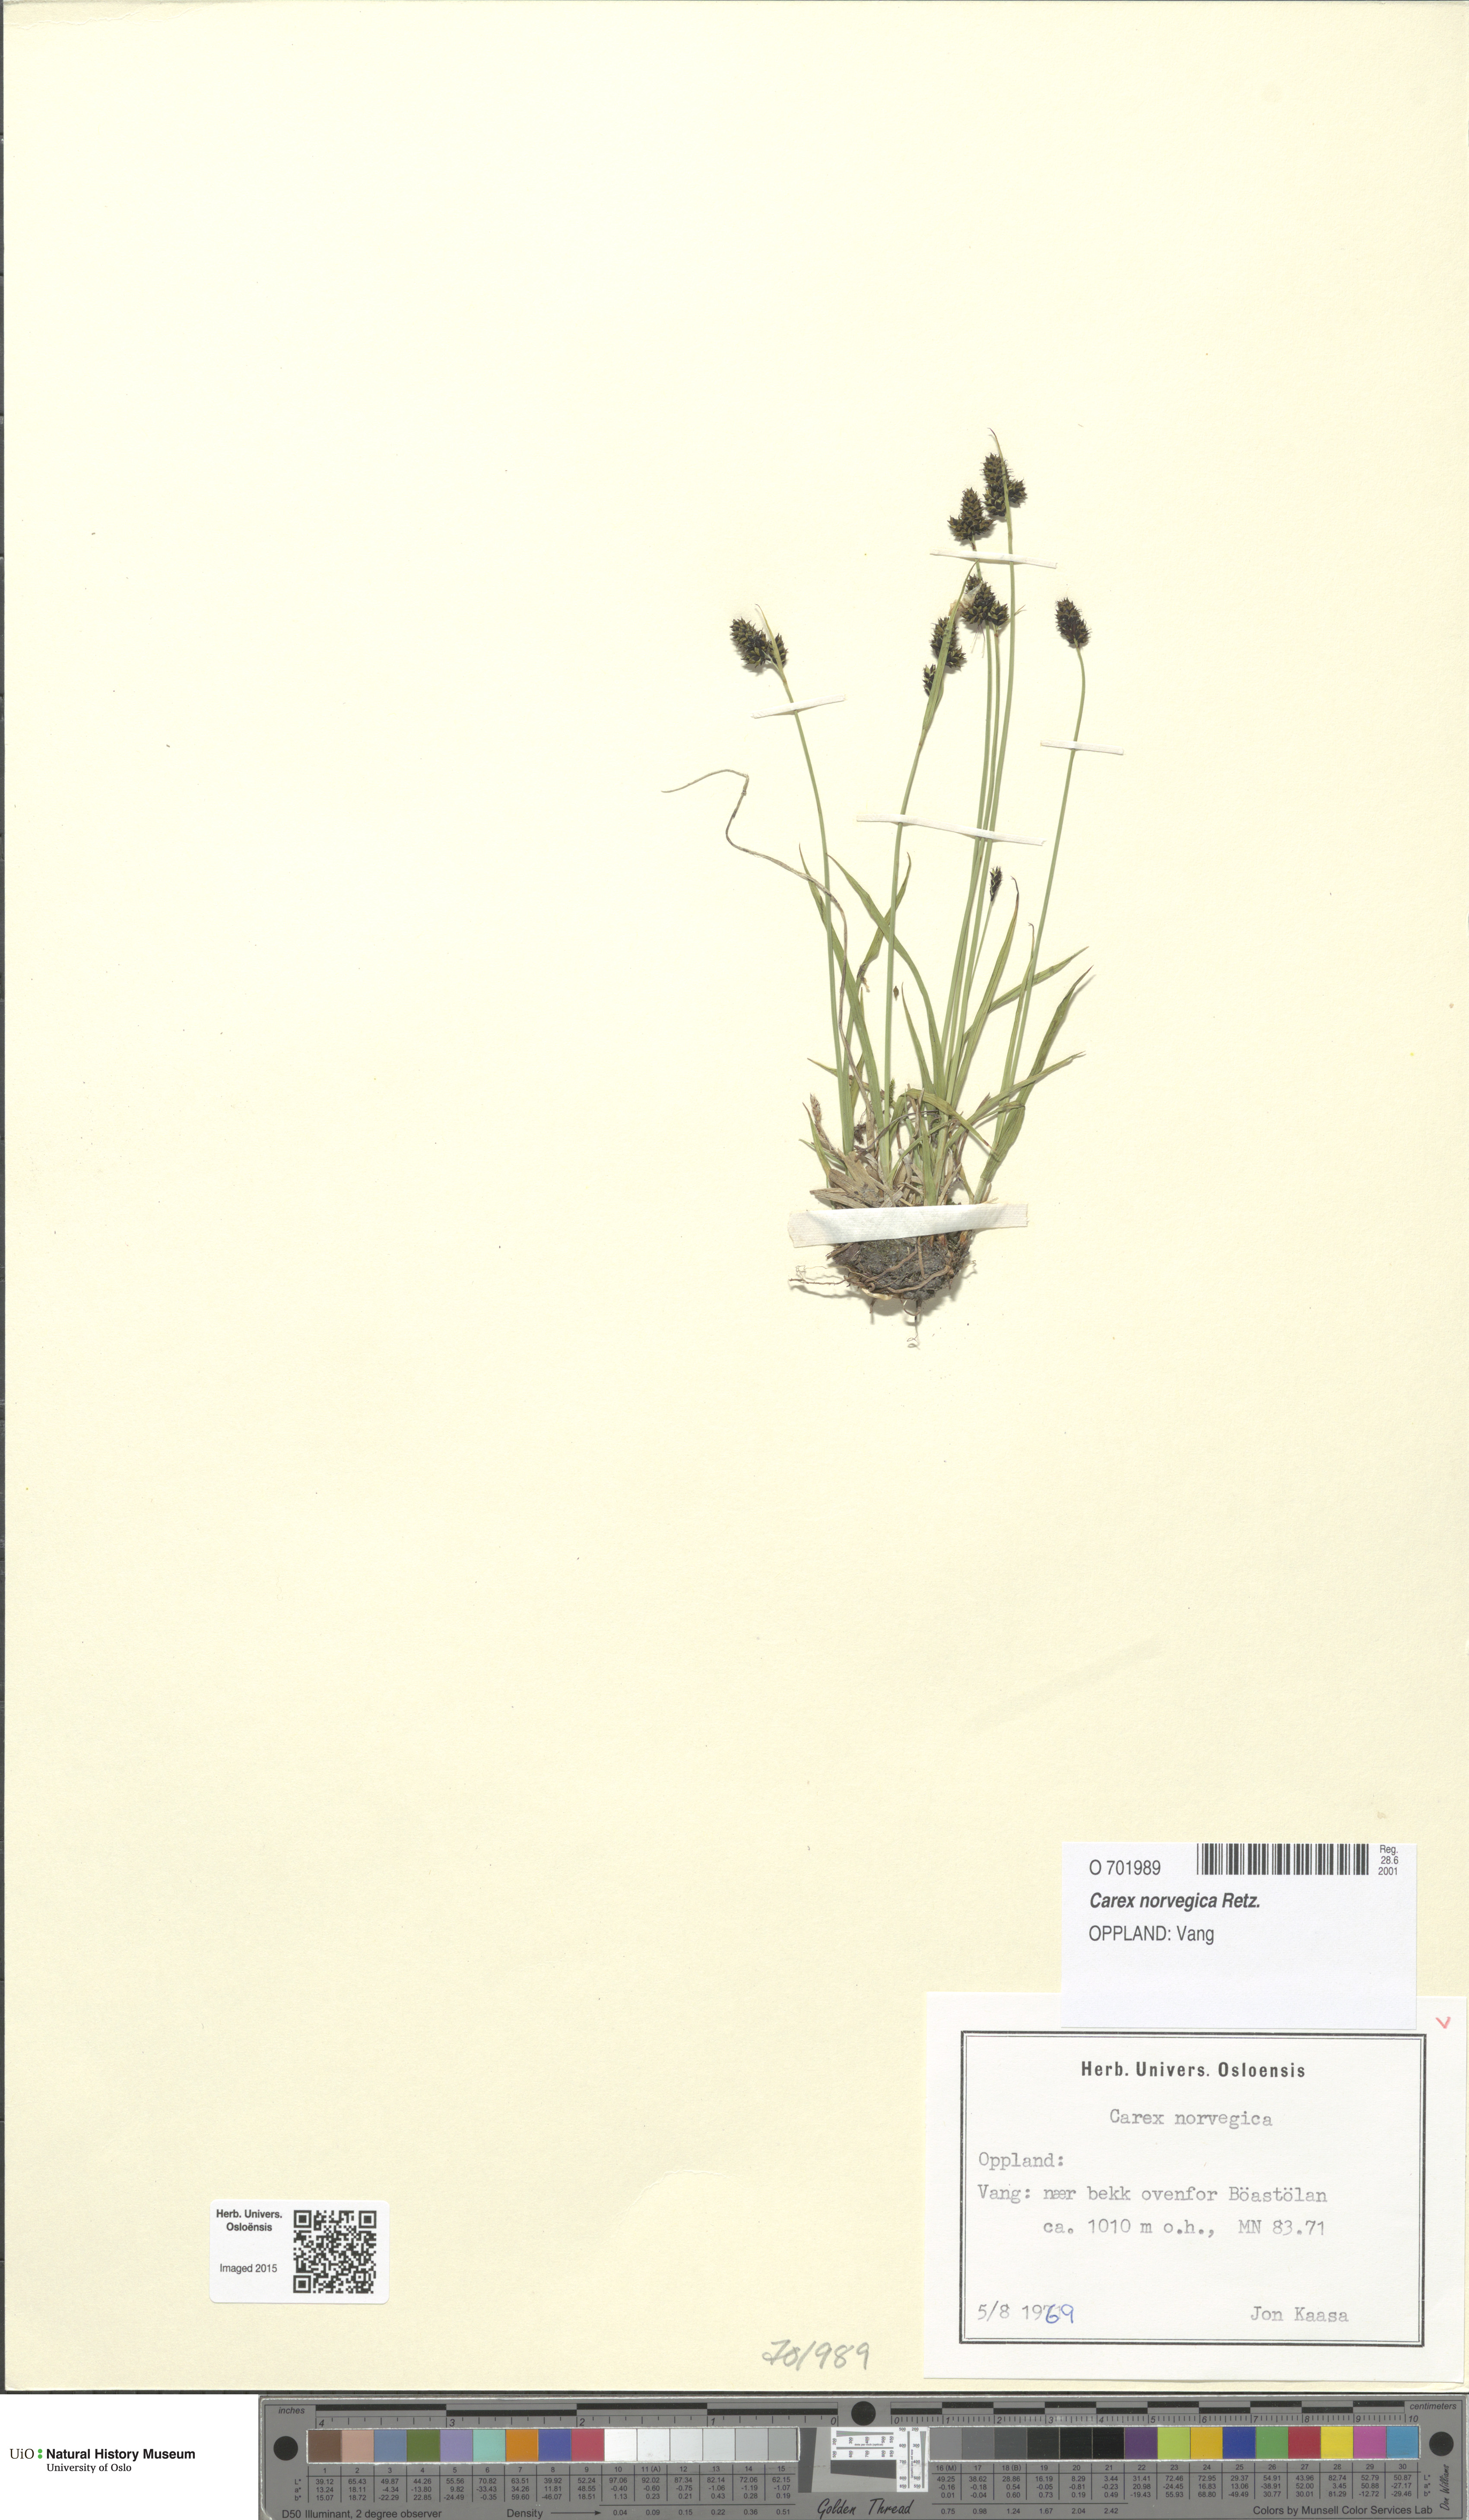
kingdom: Plantae
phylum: Tracheophyta
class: Liliopsida
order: Poales
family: Cyperaceae
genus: Carex
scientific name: Carex norvegica
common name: Close-headed alpine-sedge
